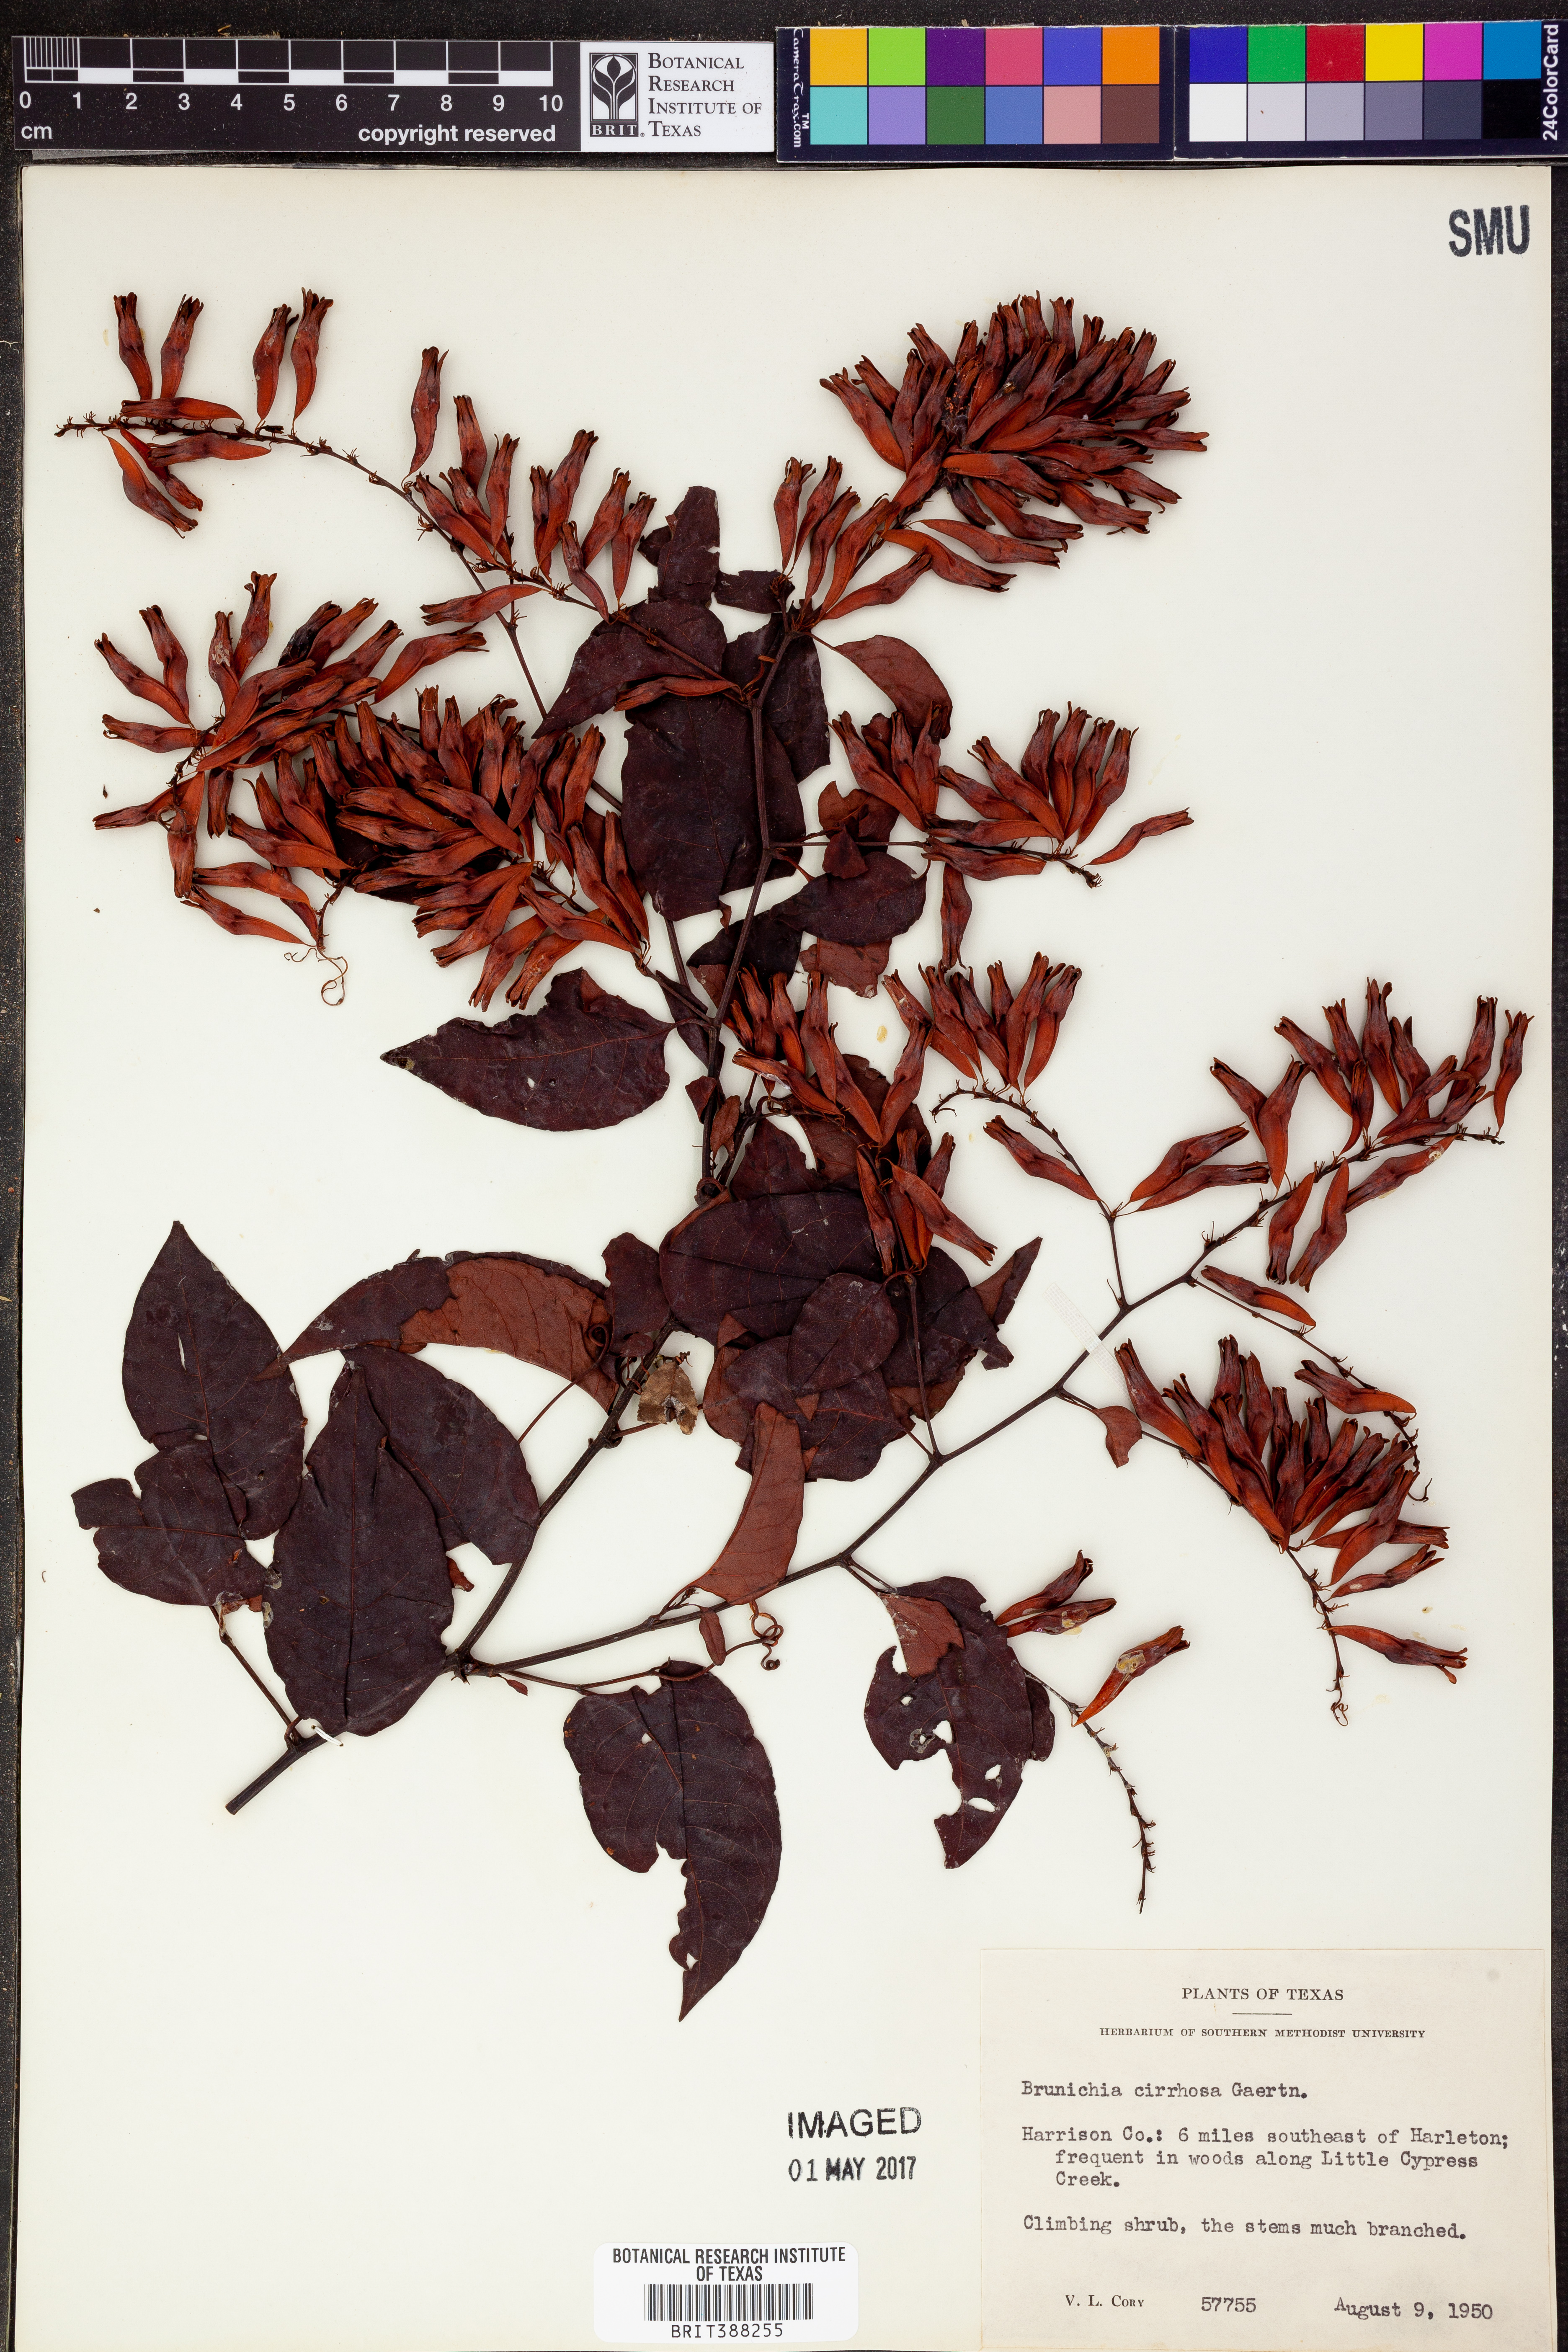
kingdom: Plantae
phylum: Tracheophyta
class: Magnoliopsida
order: Caryophyllales
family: Polygonaceae
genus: Brunnichia
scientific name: Brunnichia ovata
